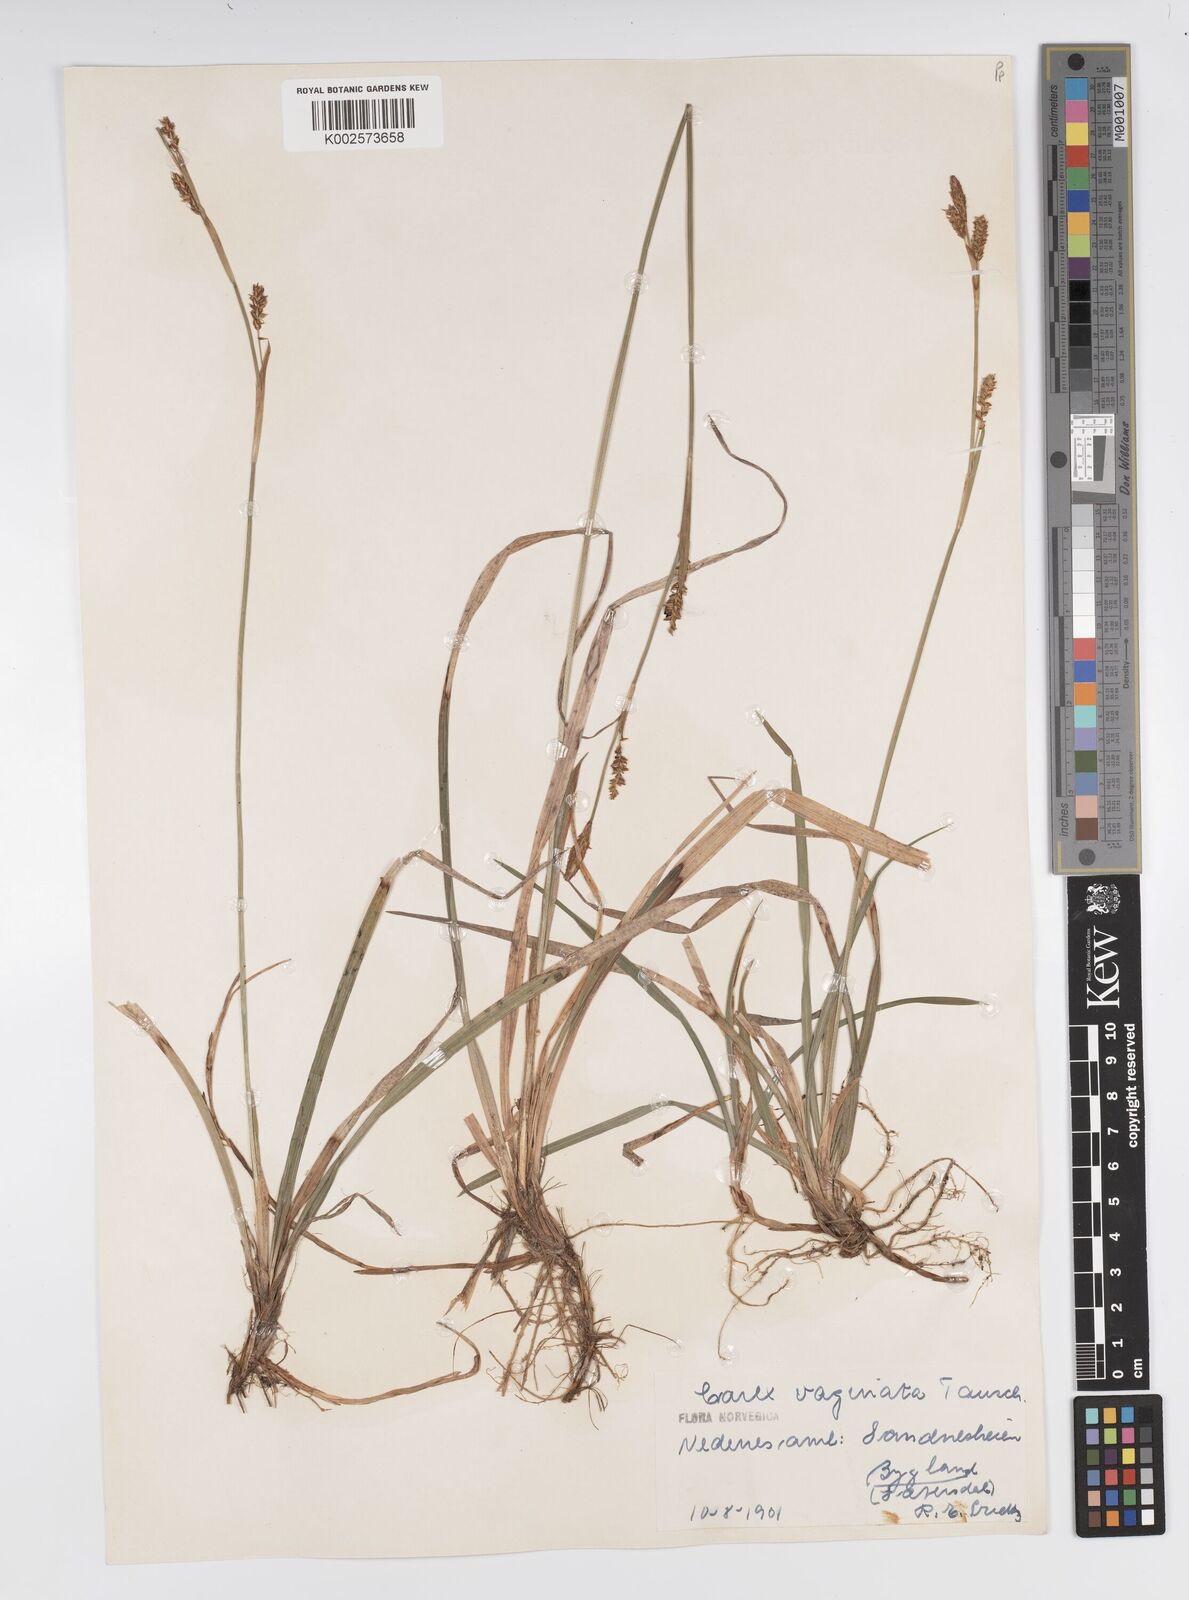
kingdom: Plantae
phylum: Tracheophyta
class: Liliopsida
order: Poales
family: Cyperaceae
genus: Carex
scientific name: Carex panicea
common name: Carnation sedge
